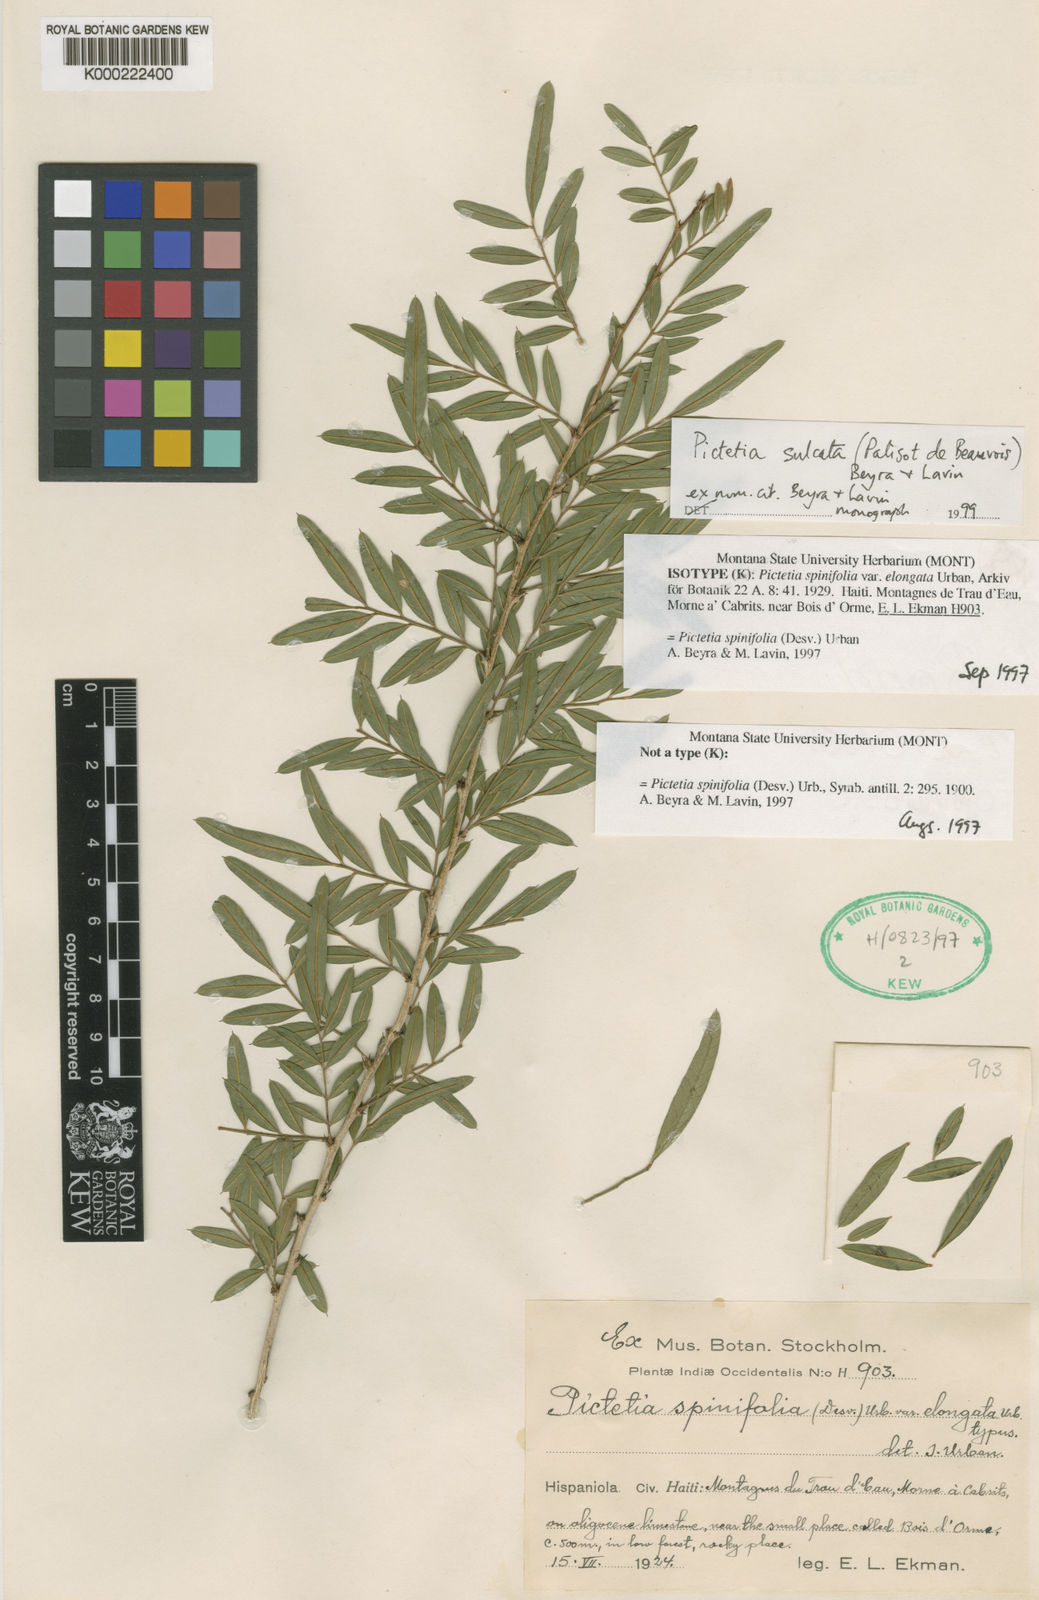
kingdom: Plantae
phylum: Tracheophyta
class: Magnoliopsida
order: Fabales
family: Fabaceae
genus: Pictetia
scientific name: Pictetia sulcata
